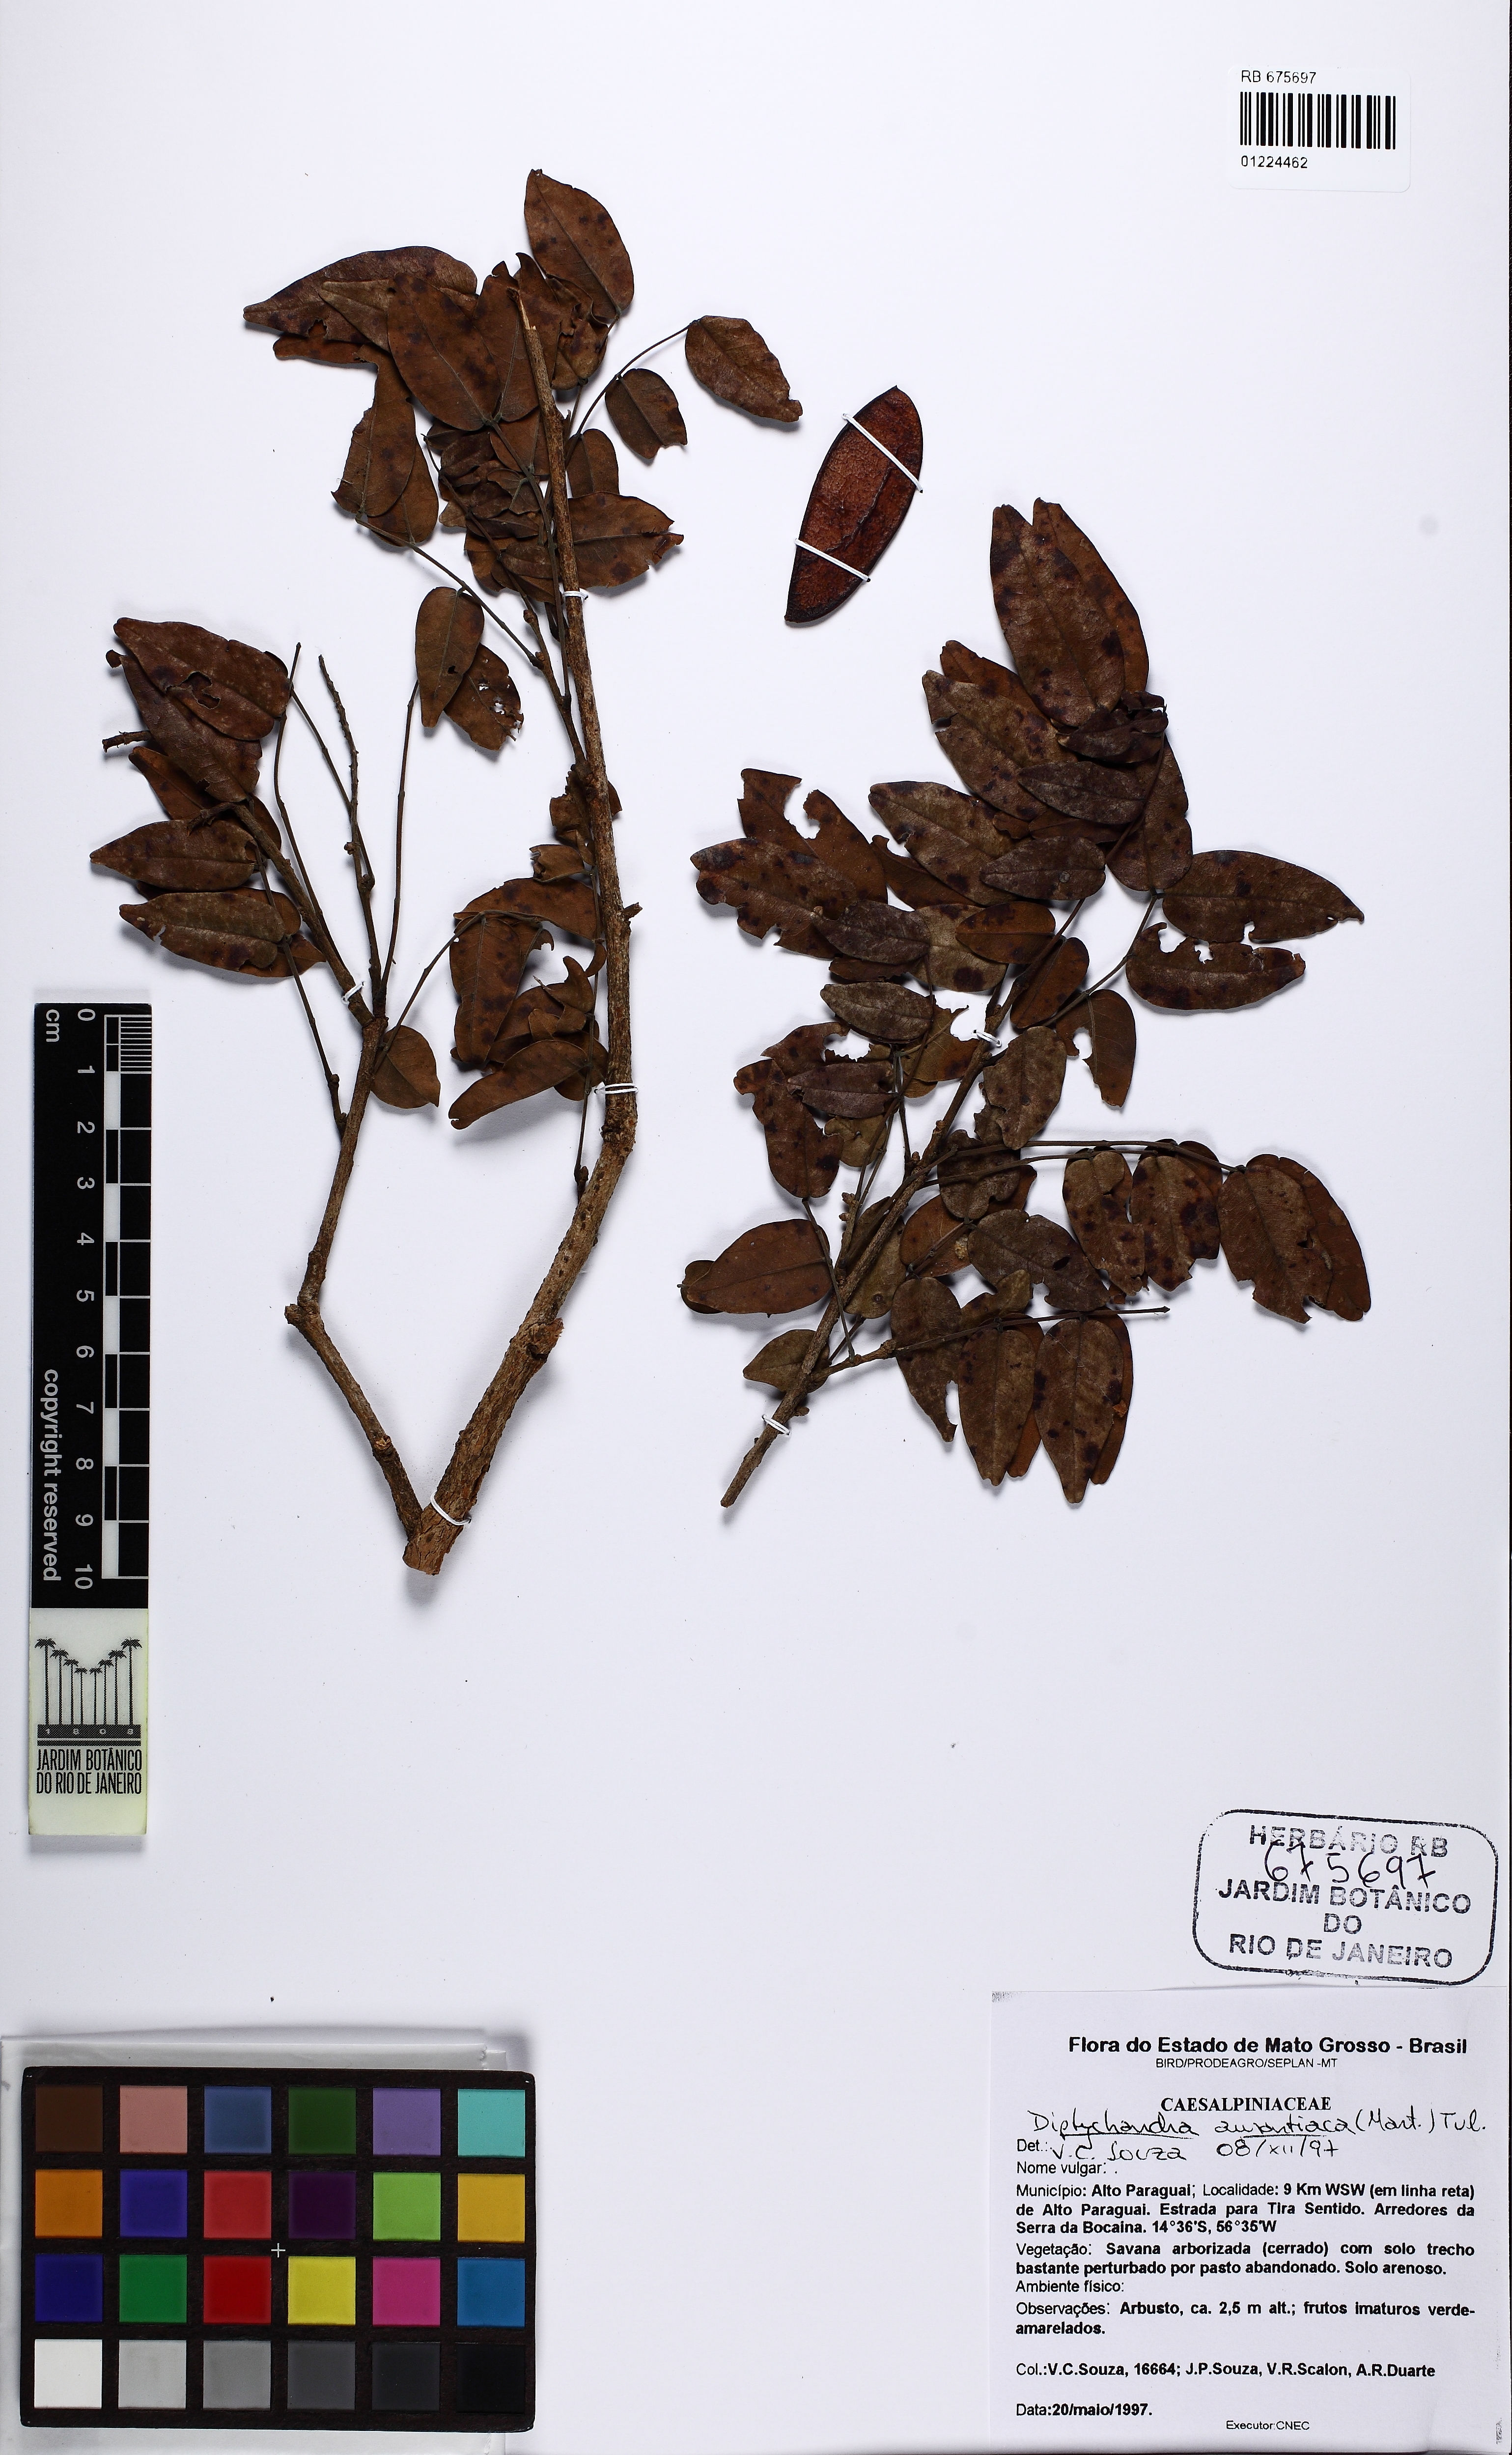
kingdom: Plantae
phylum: Tracheophyta
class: Magnoliopsida
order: Fabales
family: Fabaceae
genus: Diptychandra
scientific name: Diptychandra aurantiaca
